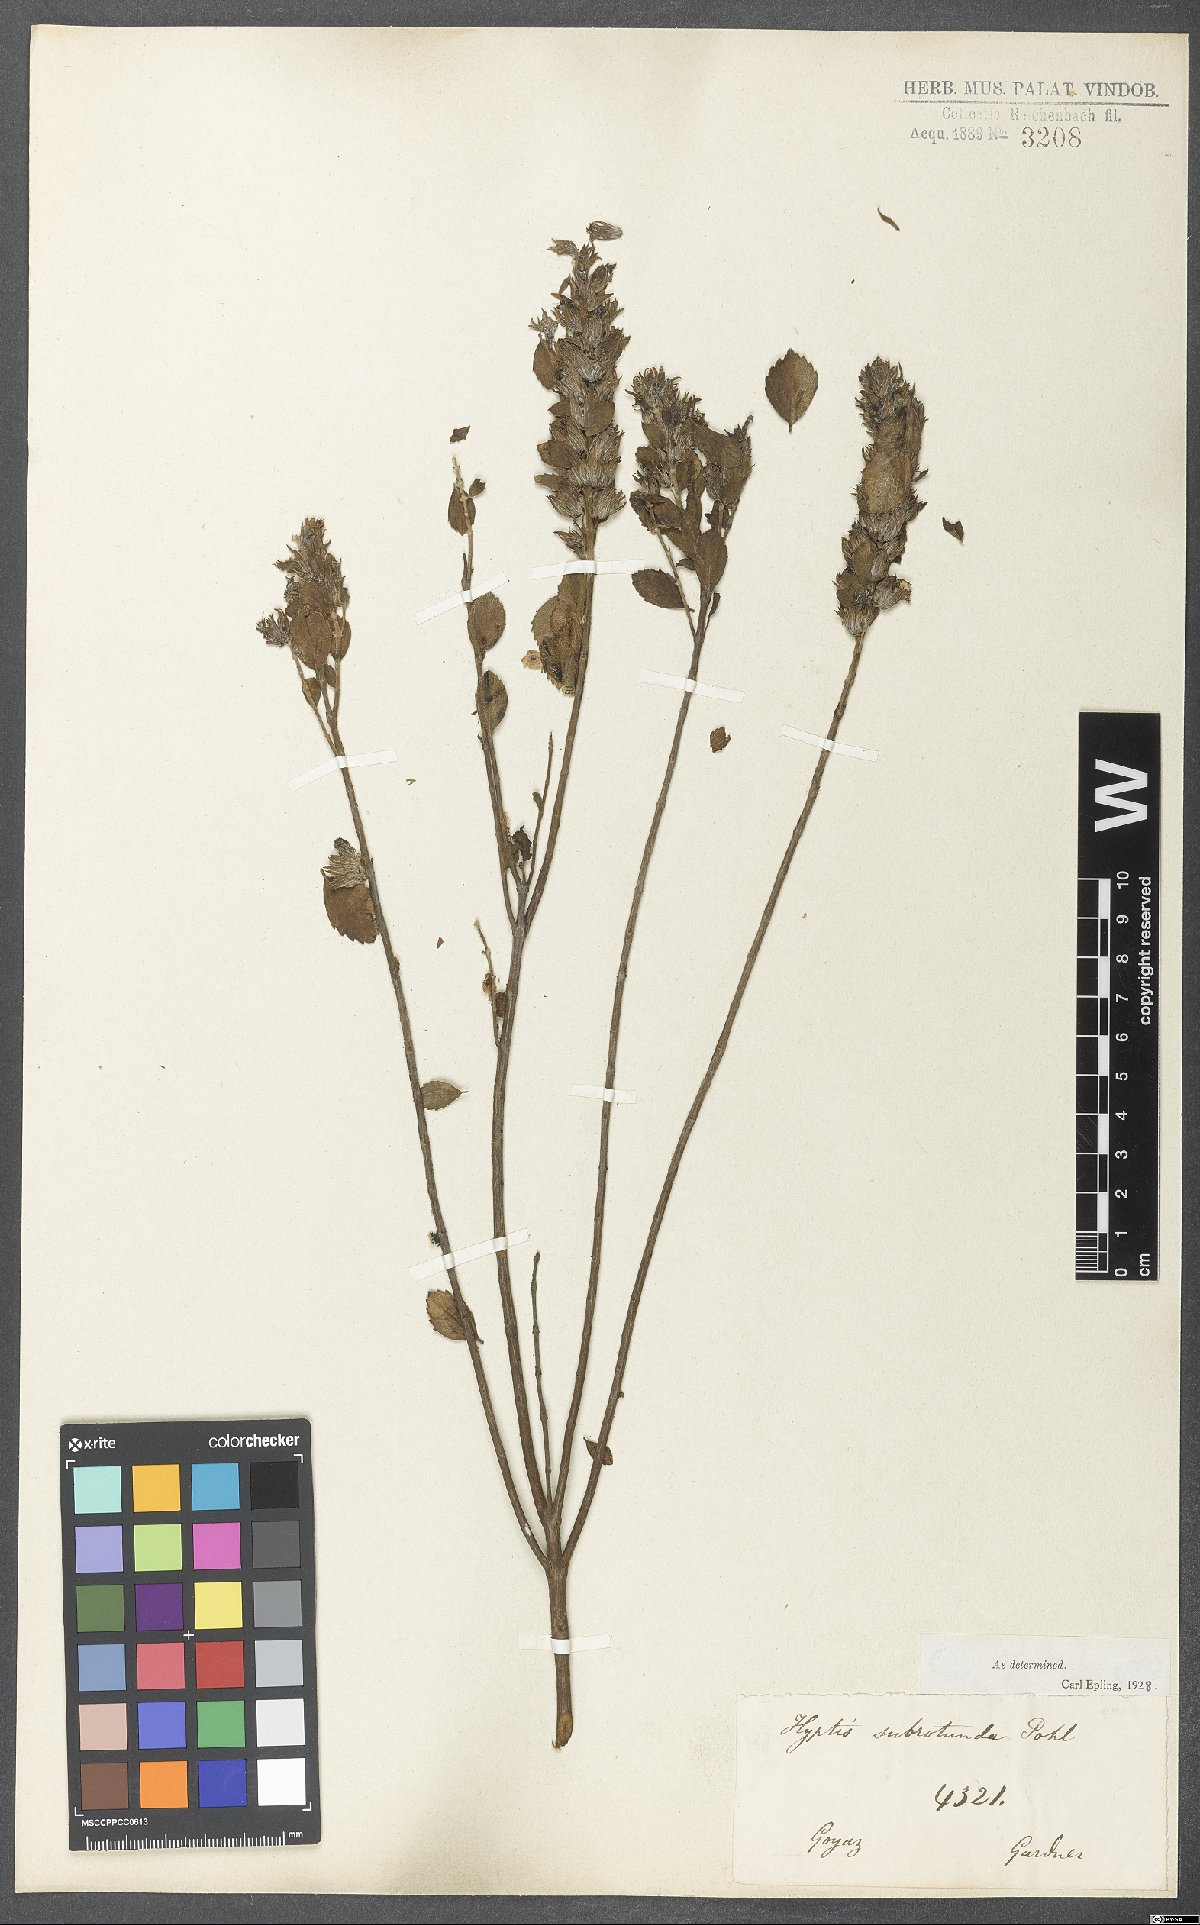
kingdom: Plantae
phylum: Tracheophyta
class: Magnoliopsida
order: Lamiales
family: Lamiaceae
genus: Cantinoa
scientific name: Cantinoa subrotunda
